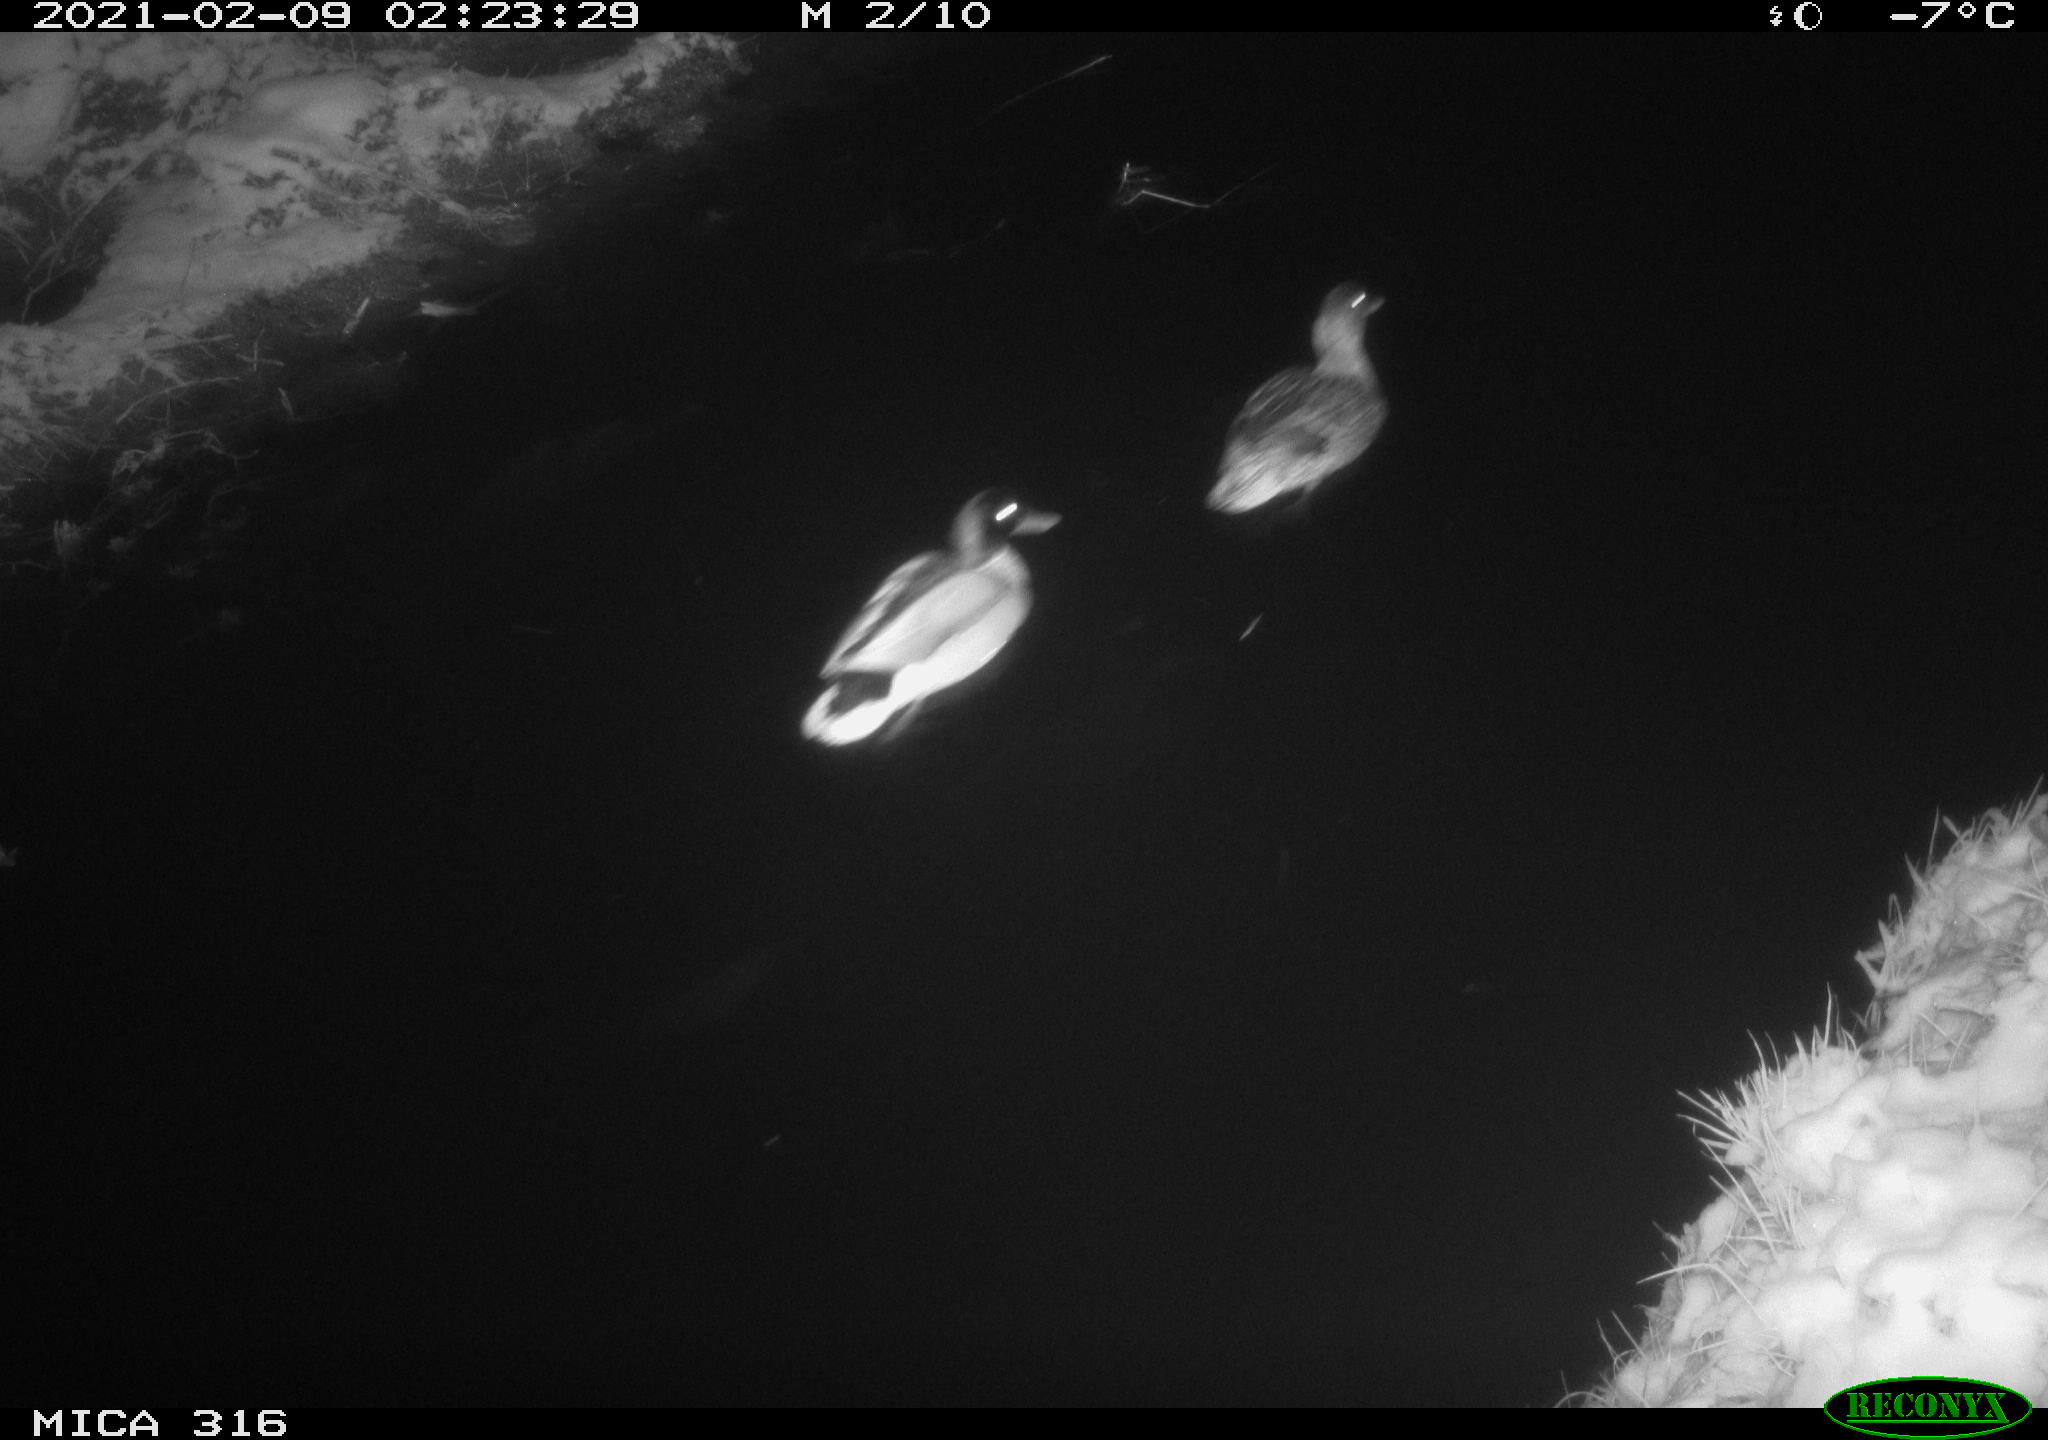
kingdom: Animalia
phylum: Chordata
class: Aves
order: Anseriformes
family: Anatidae
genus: Anas
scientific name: Anas platyrhynchos
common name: Mallard
